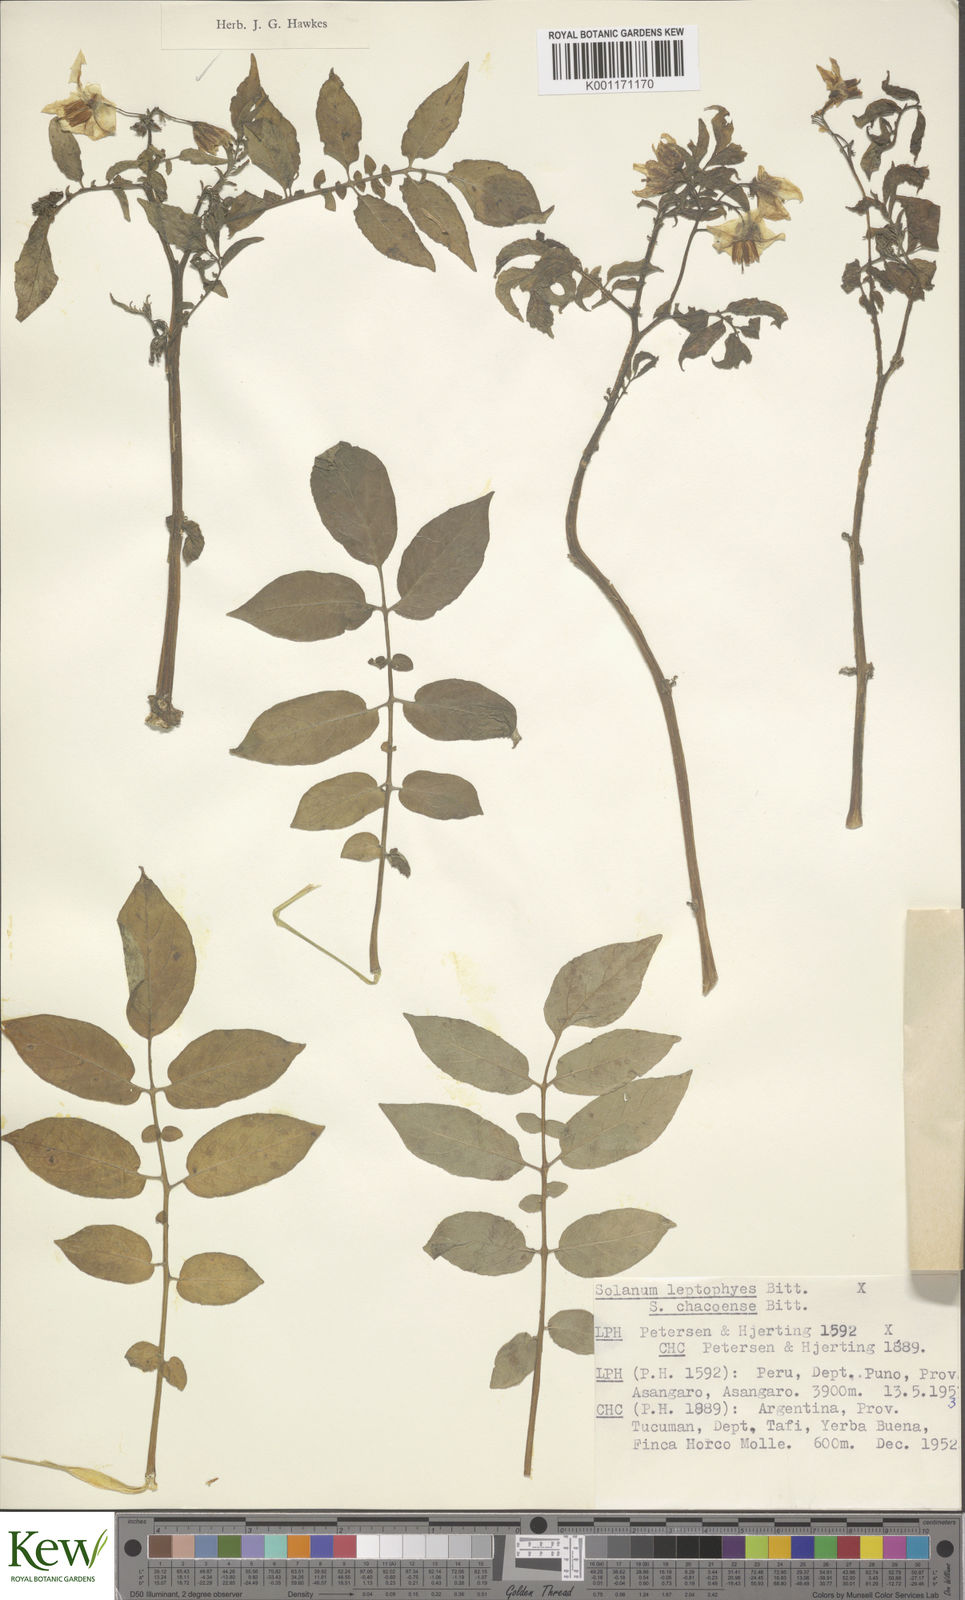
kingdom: Plantae
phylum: Tracheophyta
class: Magnoliopsida
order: Solanales
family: Solanaceae
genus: Solanum
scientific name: Solanum chacoense
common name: Chaco potato
